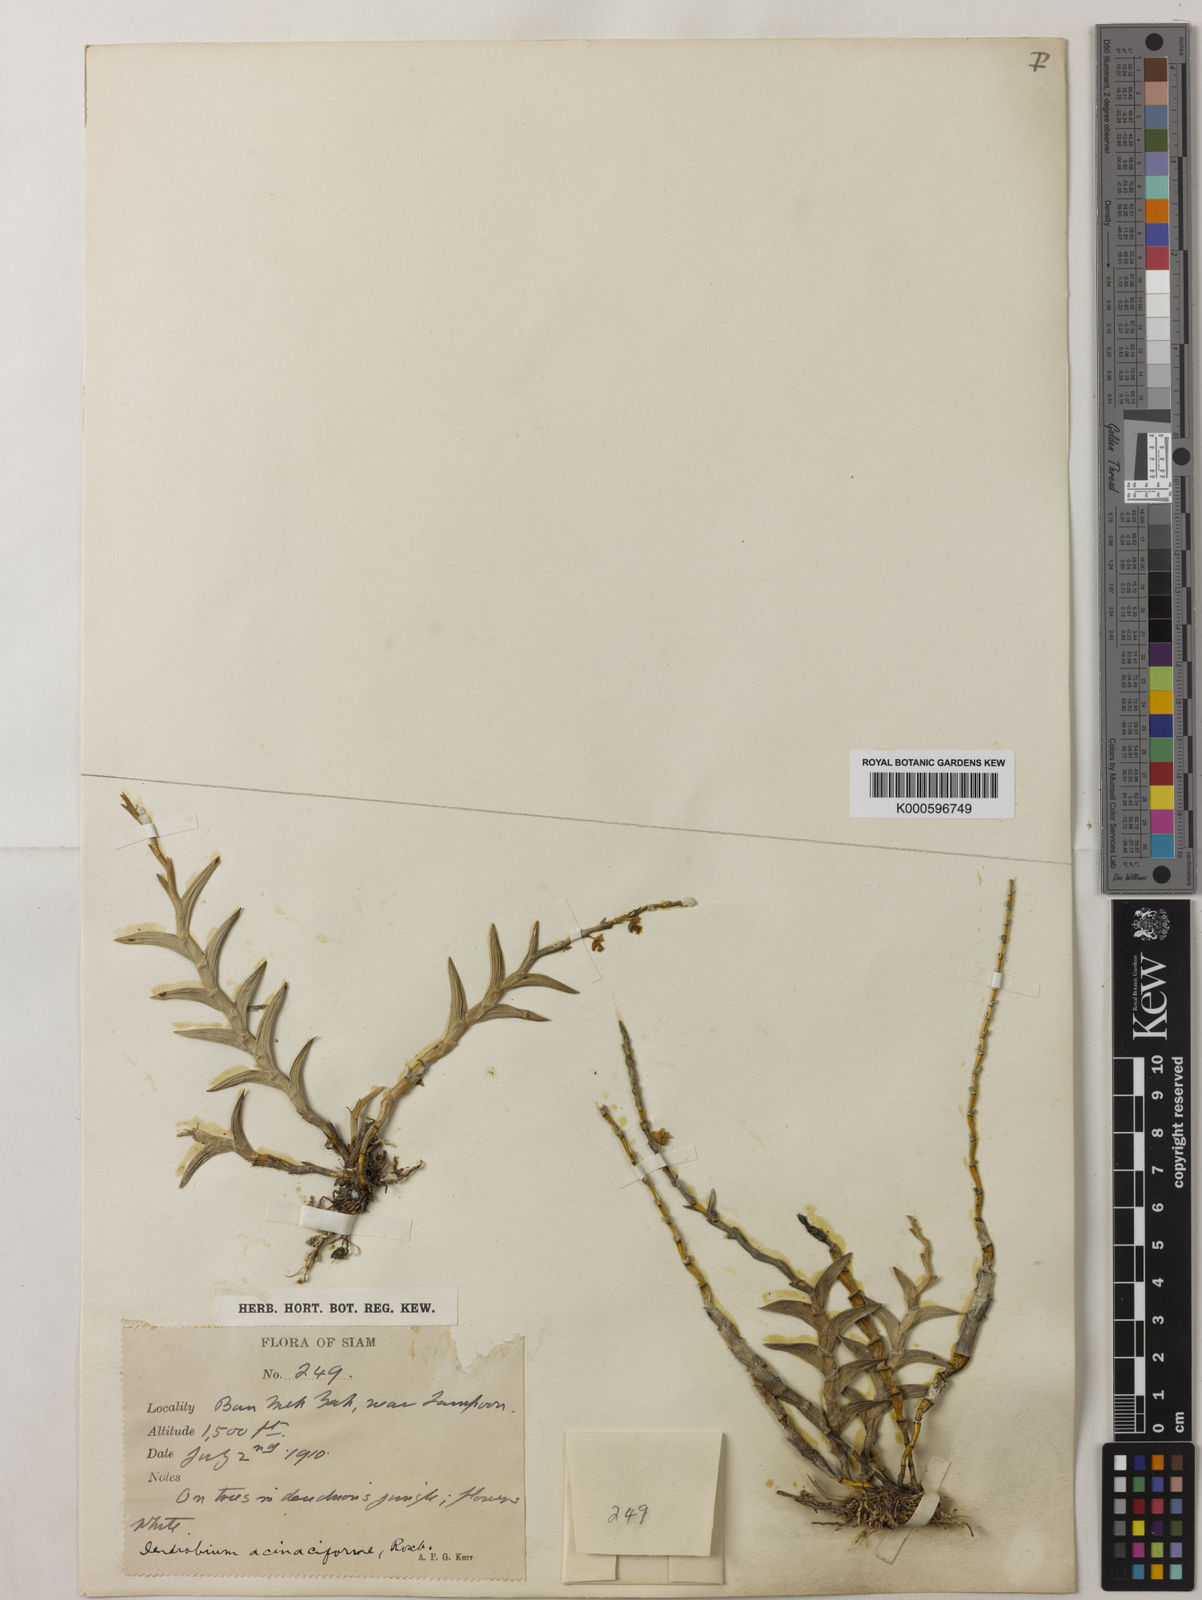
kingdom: Plantae
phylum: Tracheophyta
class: Liliopsida
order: Asparagales
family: Orchidaceae
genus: Dendrobium
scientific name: Dendrobium acinaciforme
